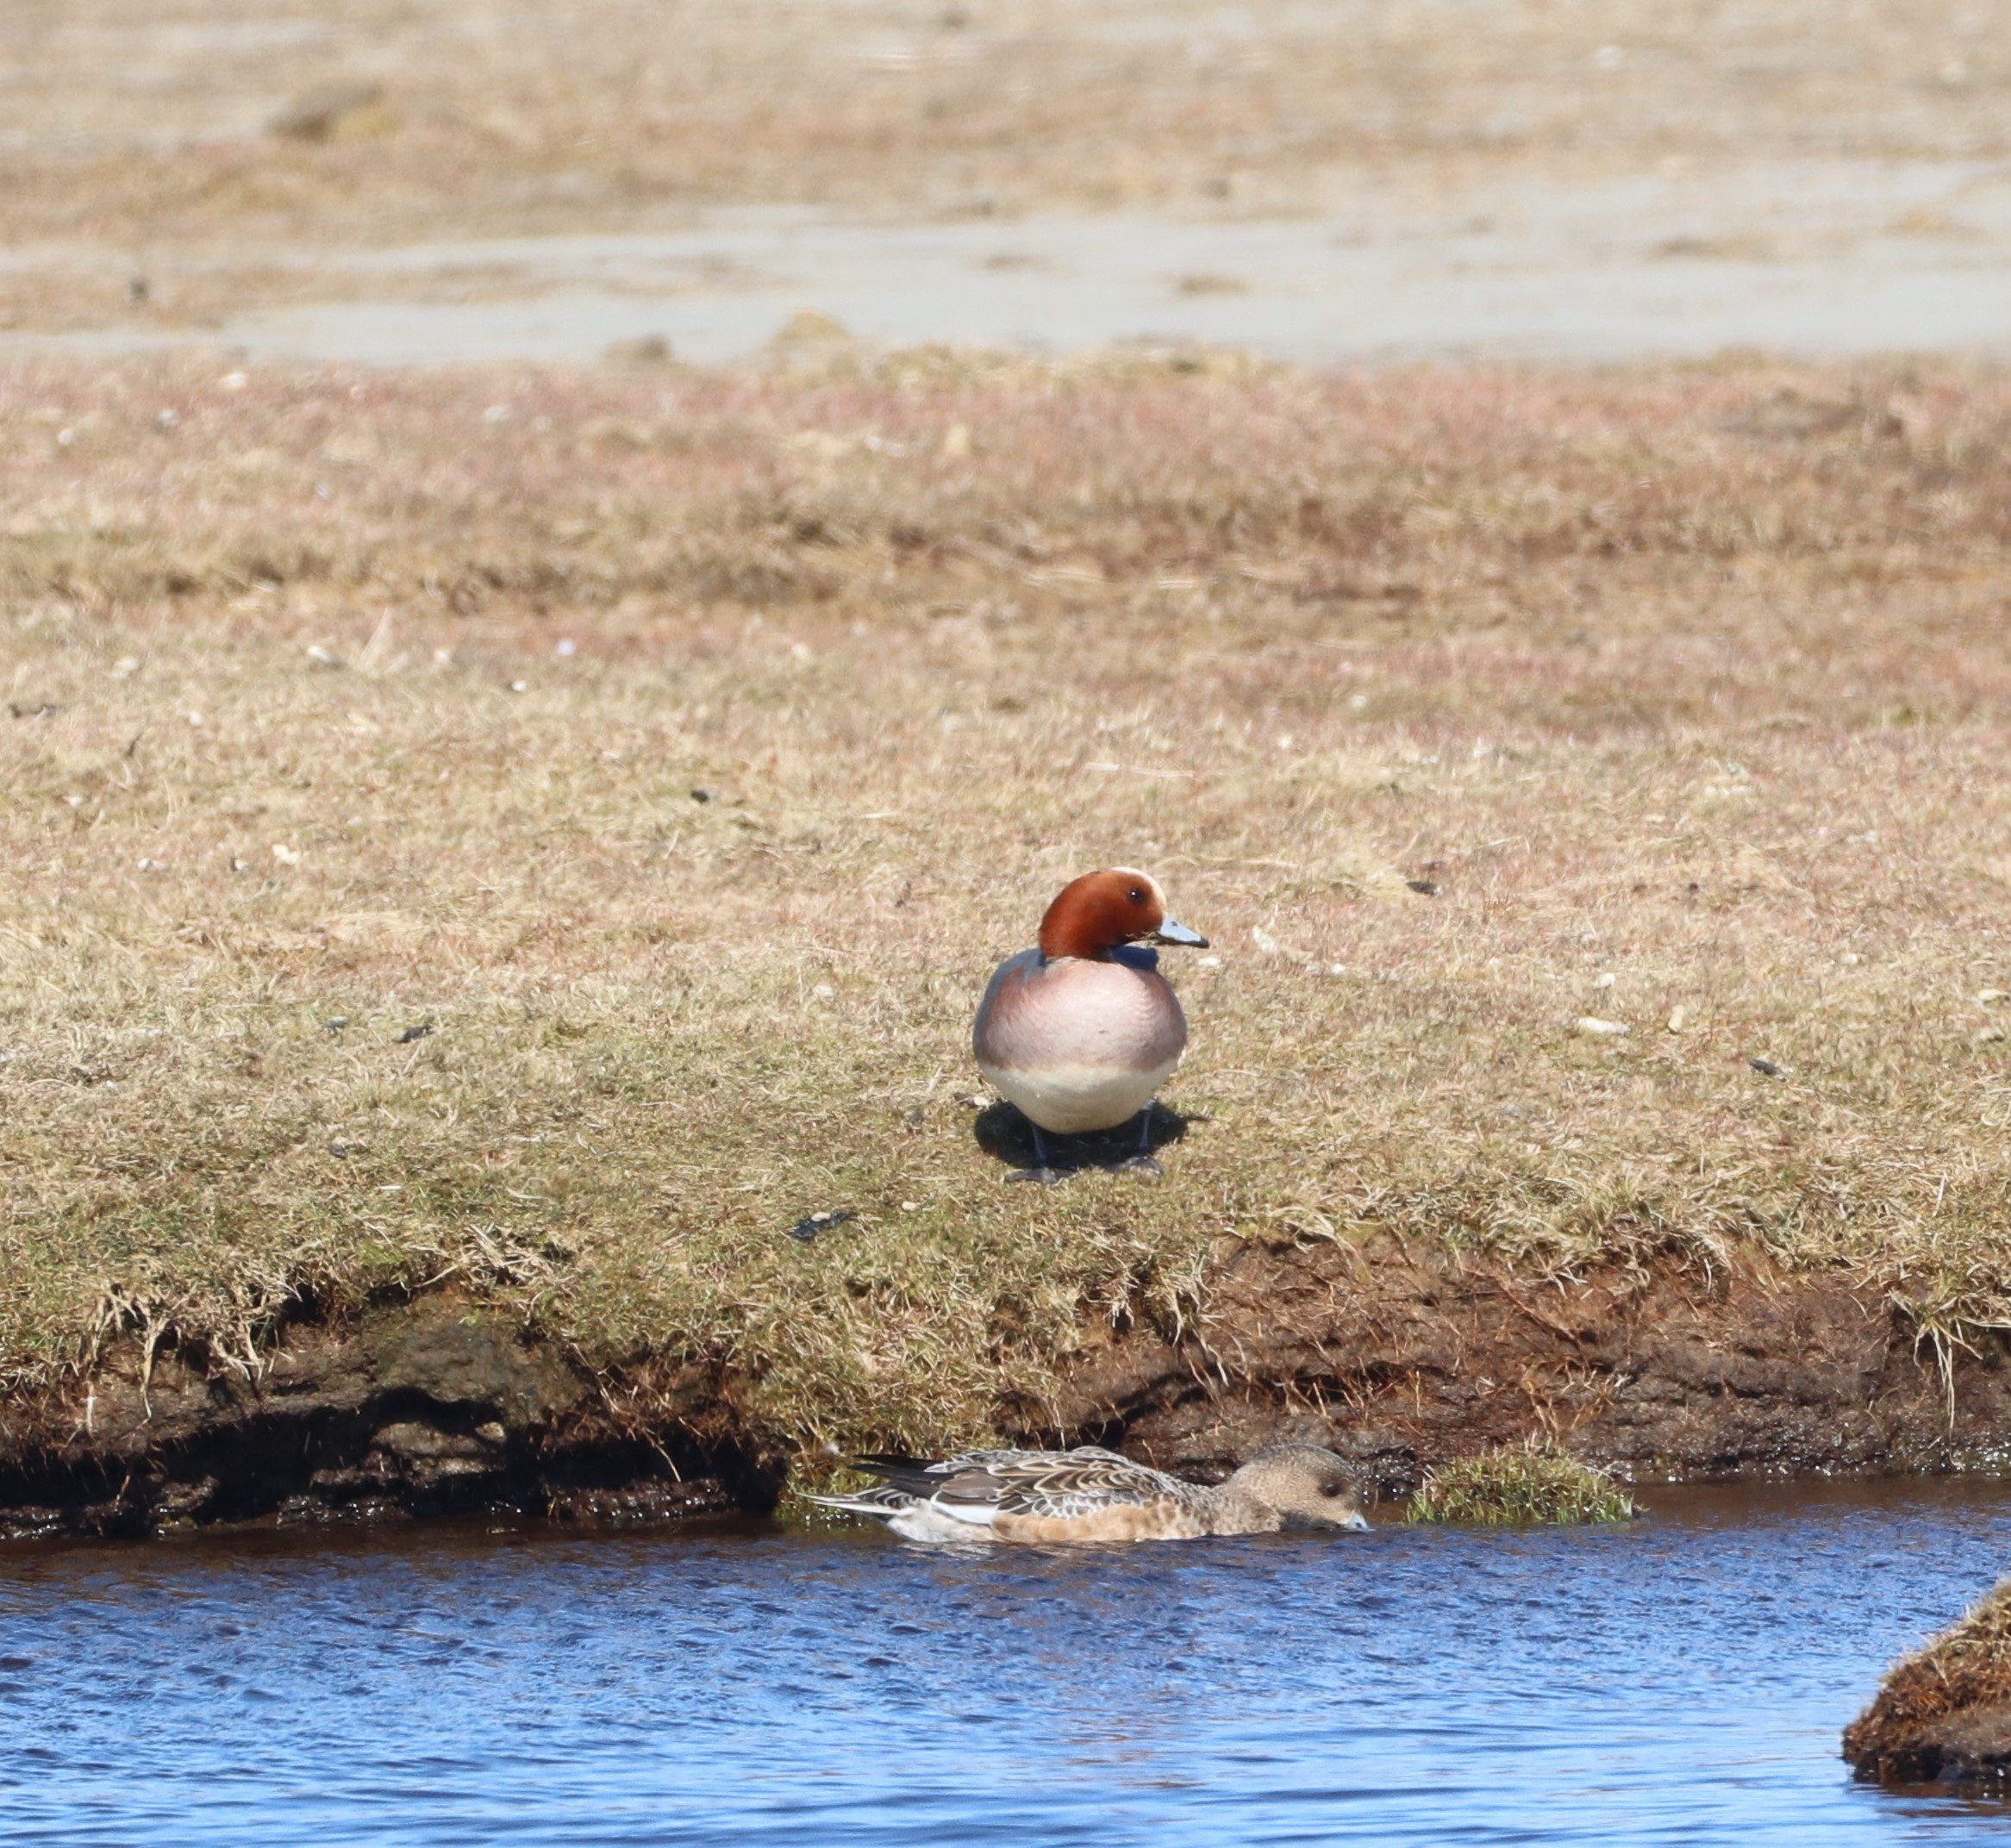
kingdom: Animalia
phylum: Chordata
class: Aves
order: Anseriformes
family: Anatidae
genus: Mareca
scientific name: Mareca penelope
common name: Pibeand
